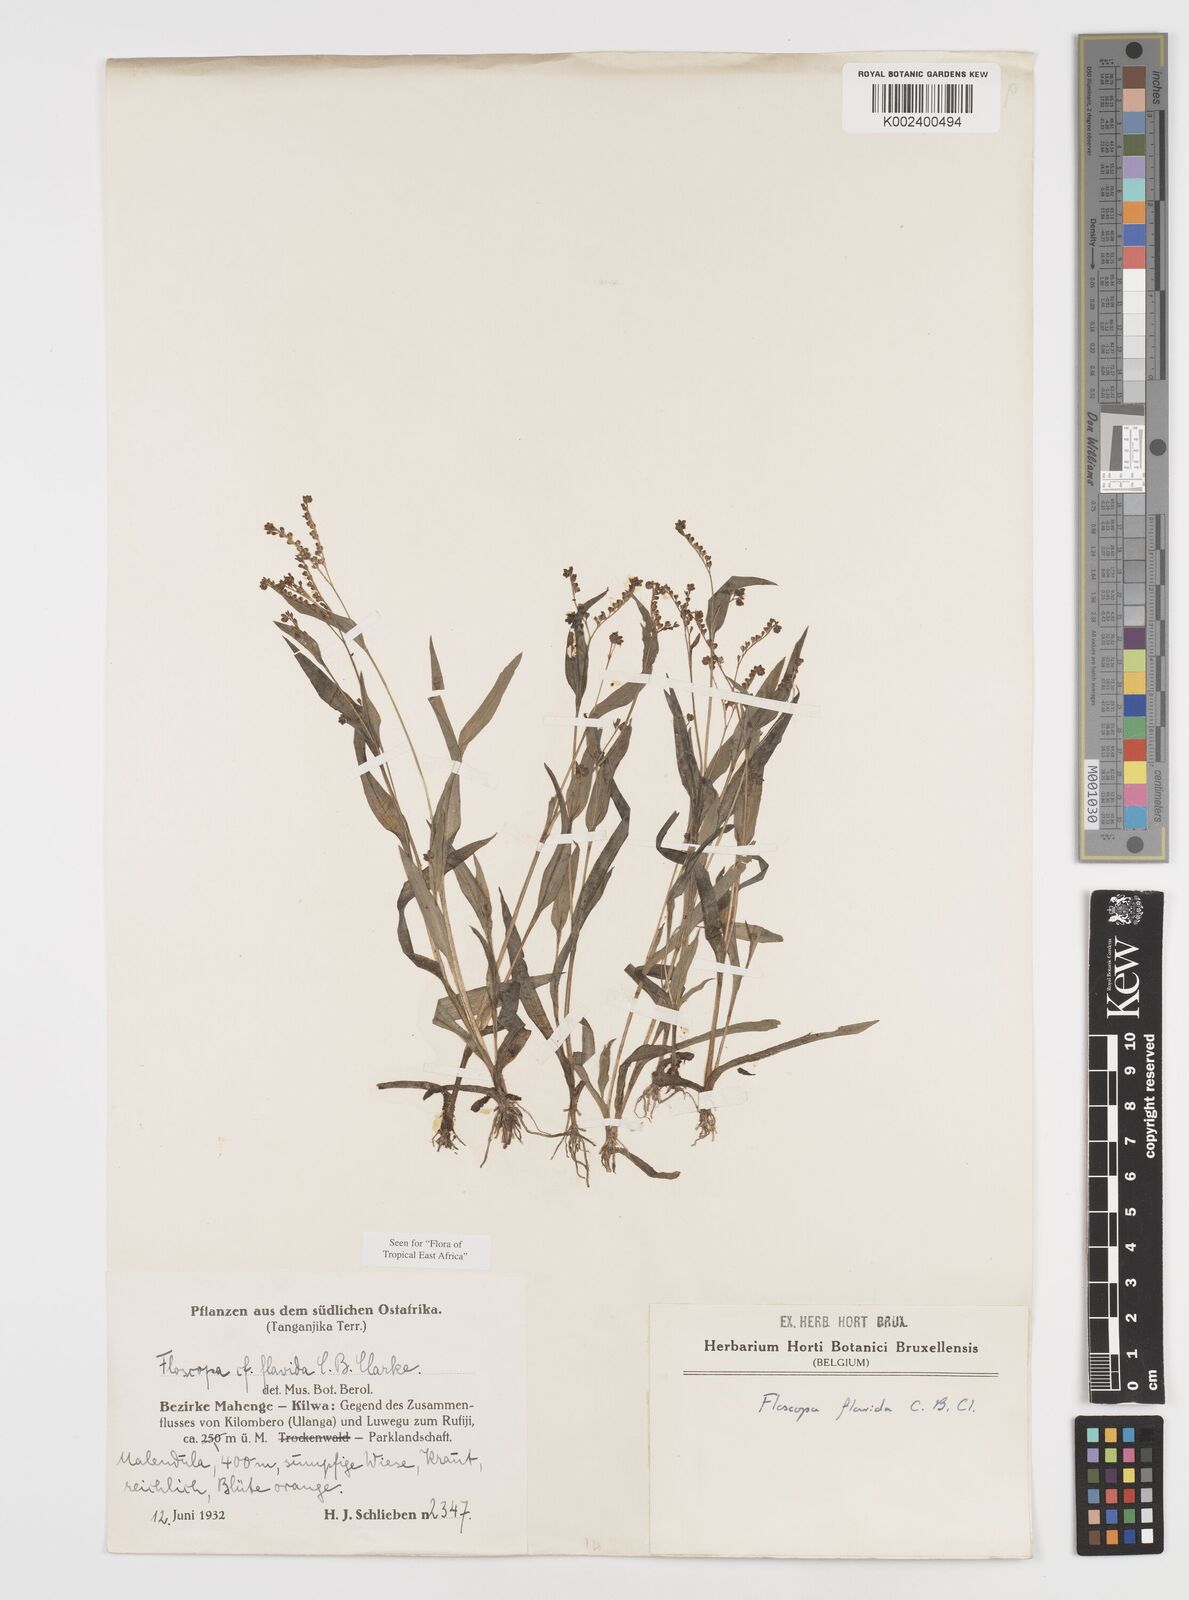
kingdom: Plantae
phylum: Tracheophyta
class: Liliopsida
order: Commelinales
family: Commelinaceae
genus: Floscopa
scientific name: Floscopa flavida
